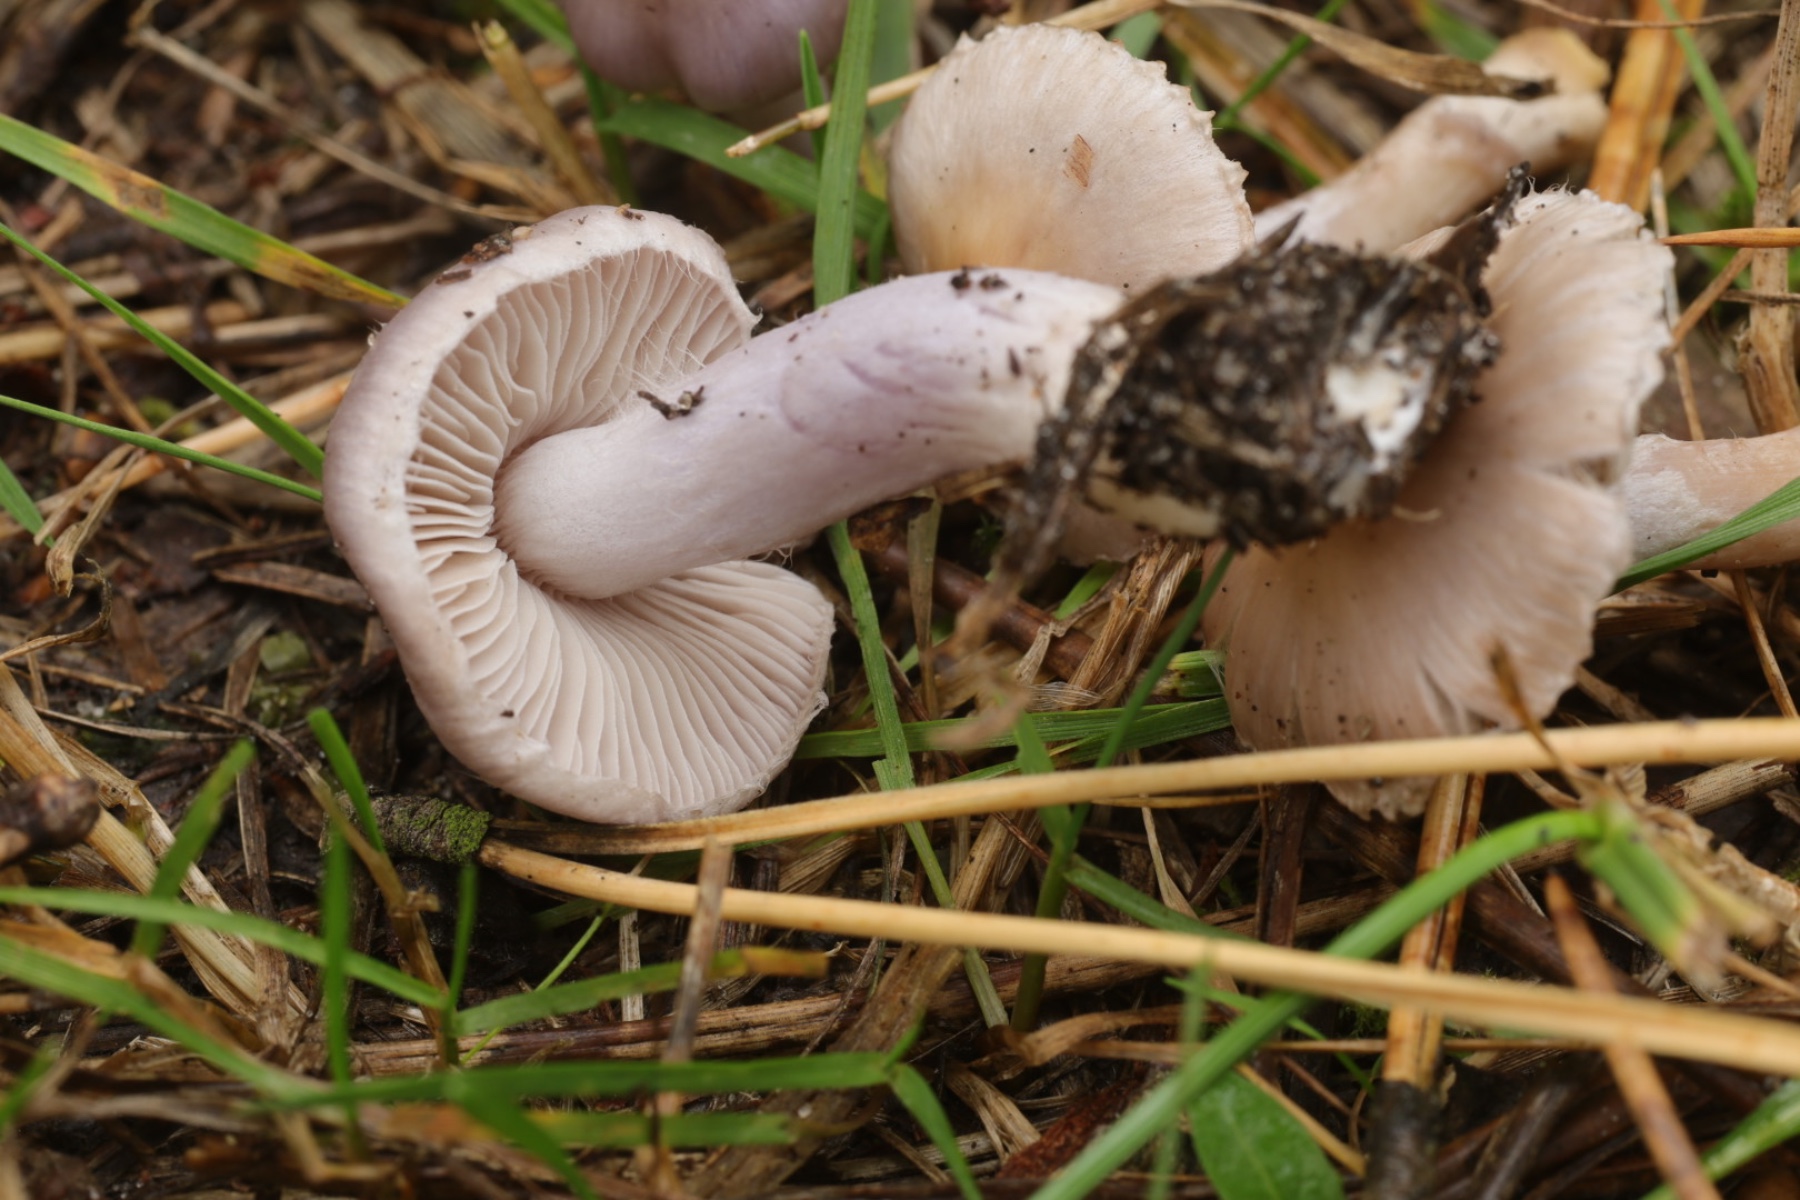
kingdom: Fungi
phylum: Basidiomycota
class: Agaricomycetes
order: Agaricales
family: Inocybaceae
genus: Inocybe
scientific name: Inocybe geophylla
